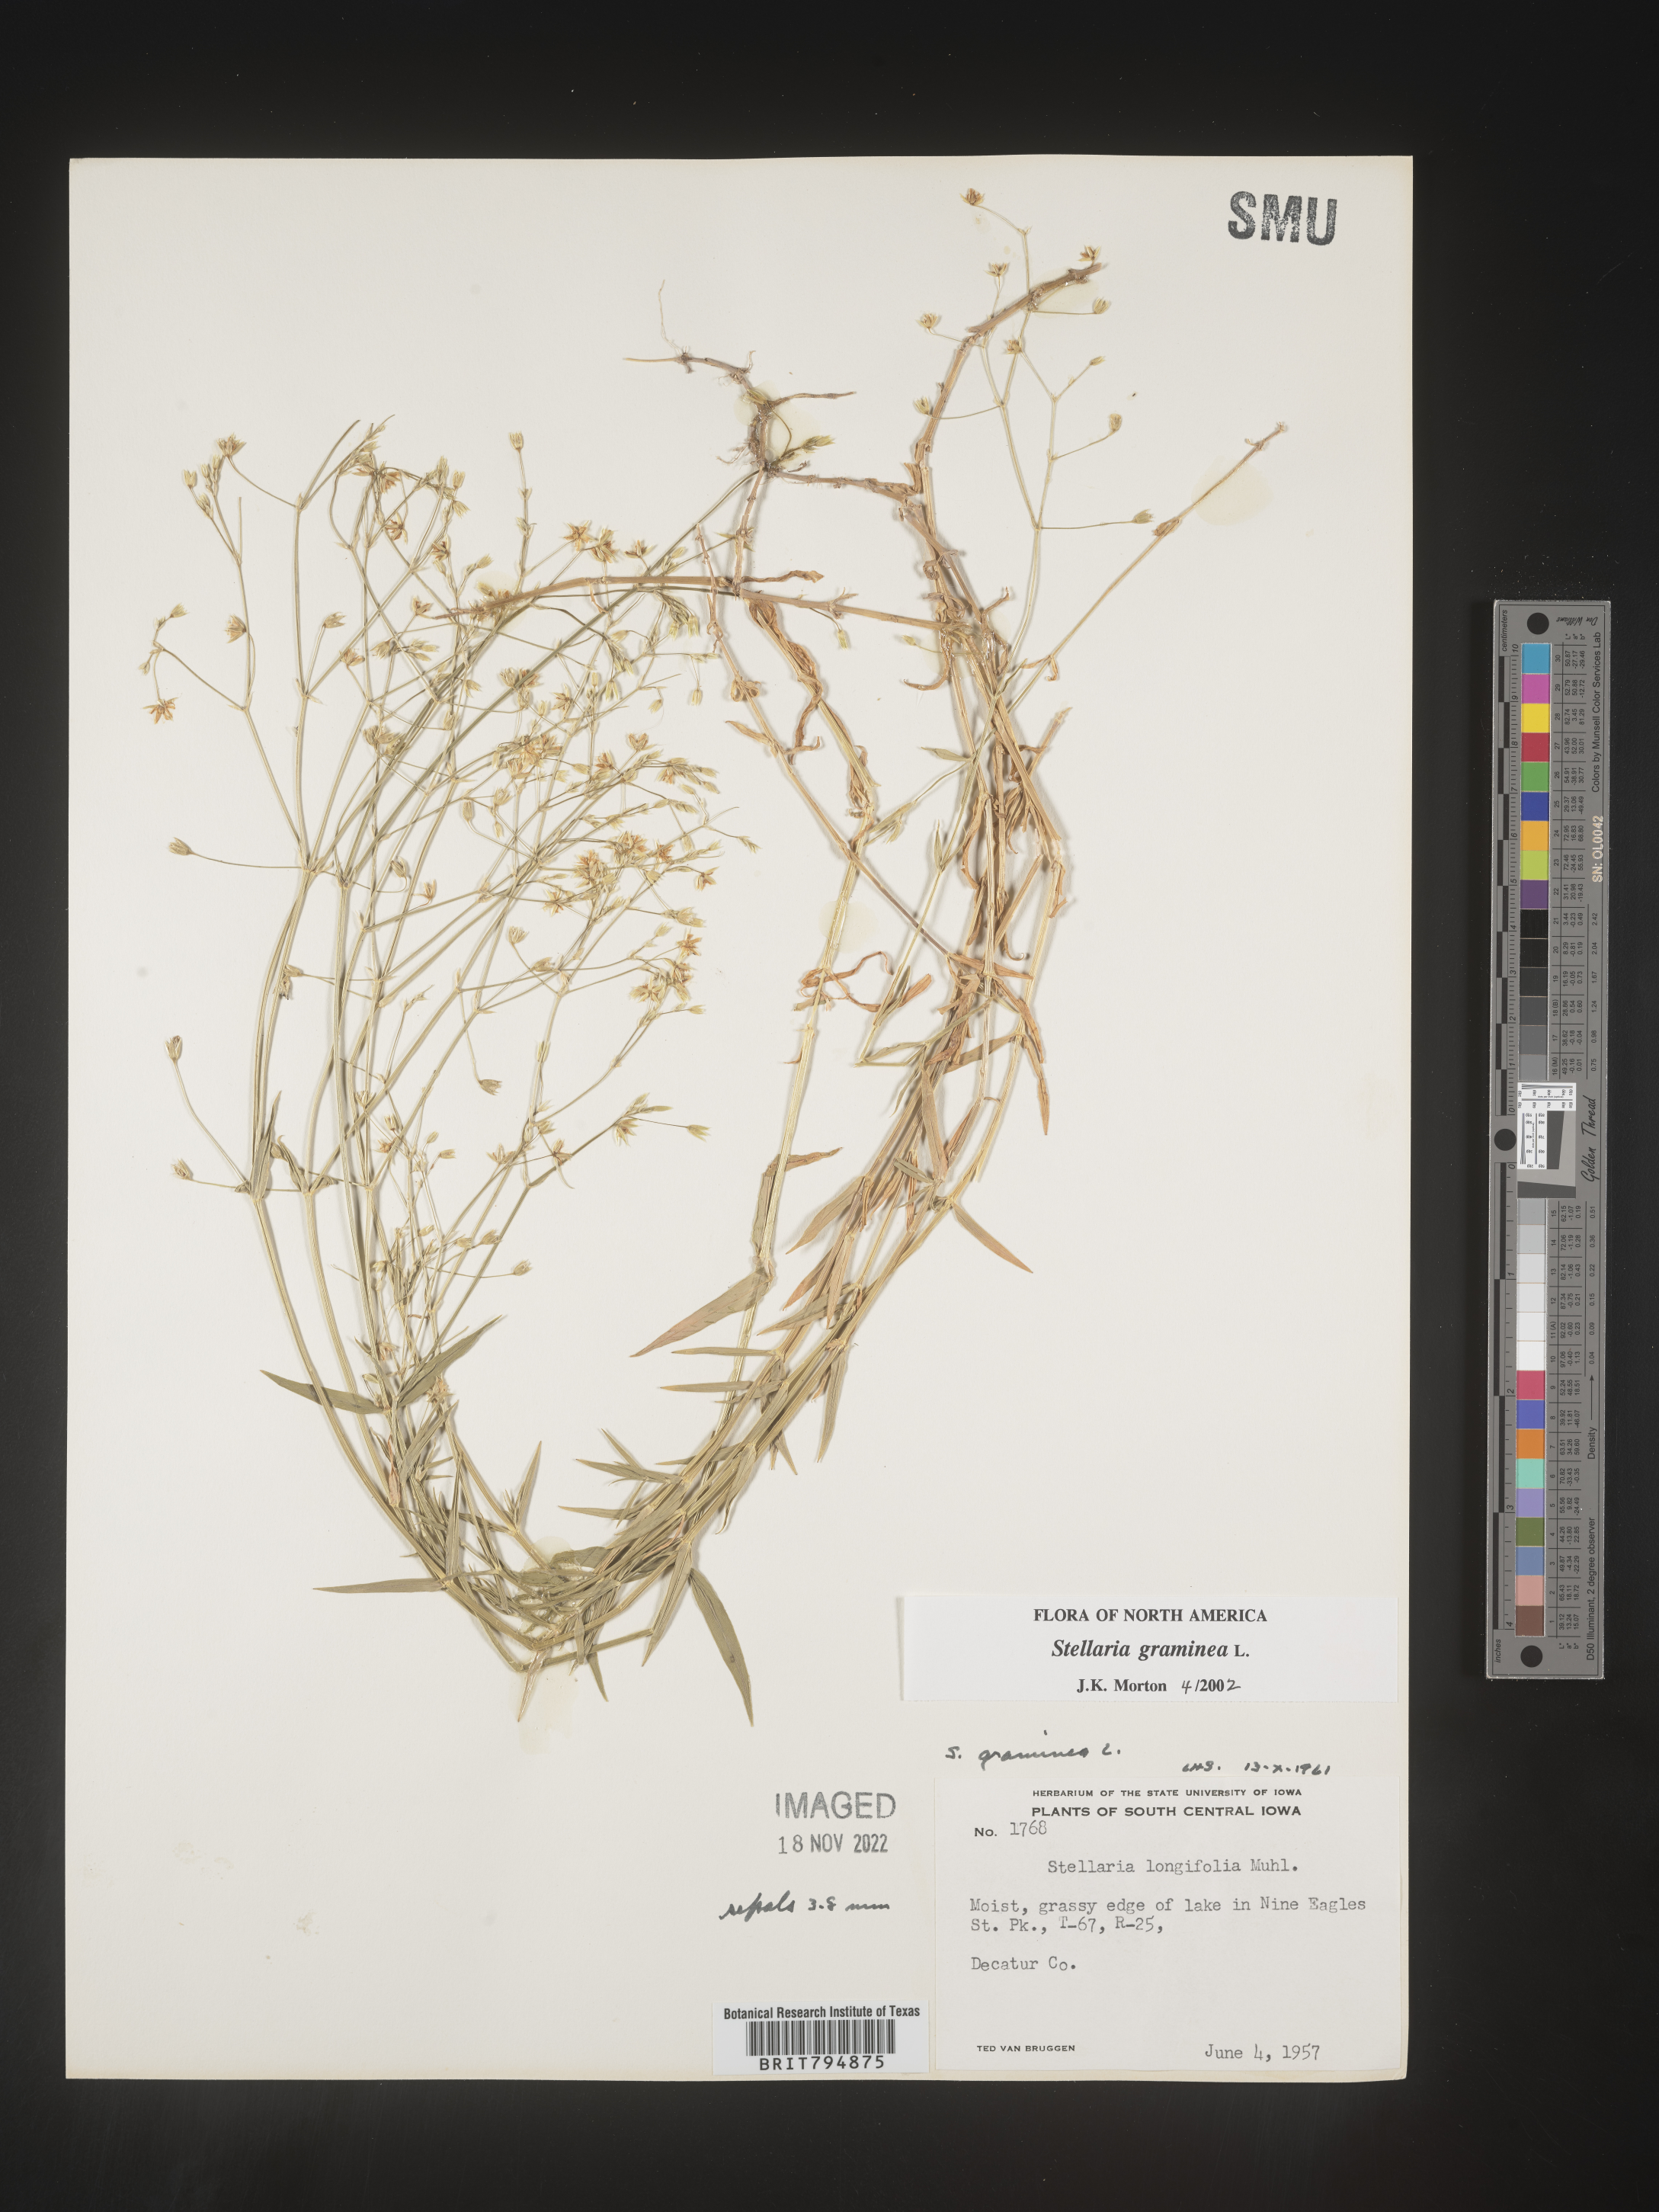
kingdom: Plantae
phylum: Tracheophyta
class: Magnoliopsida
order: Caryophyllales
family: Caryophyllaceae
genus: Stellaria
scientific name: Stellaria graminea
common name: Grass-like starwort
